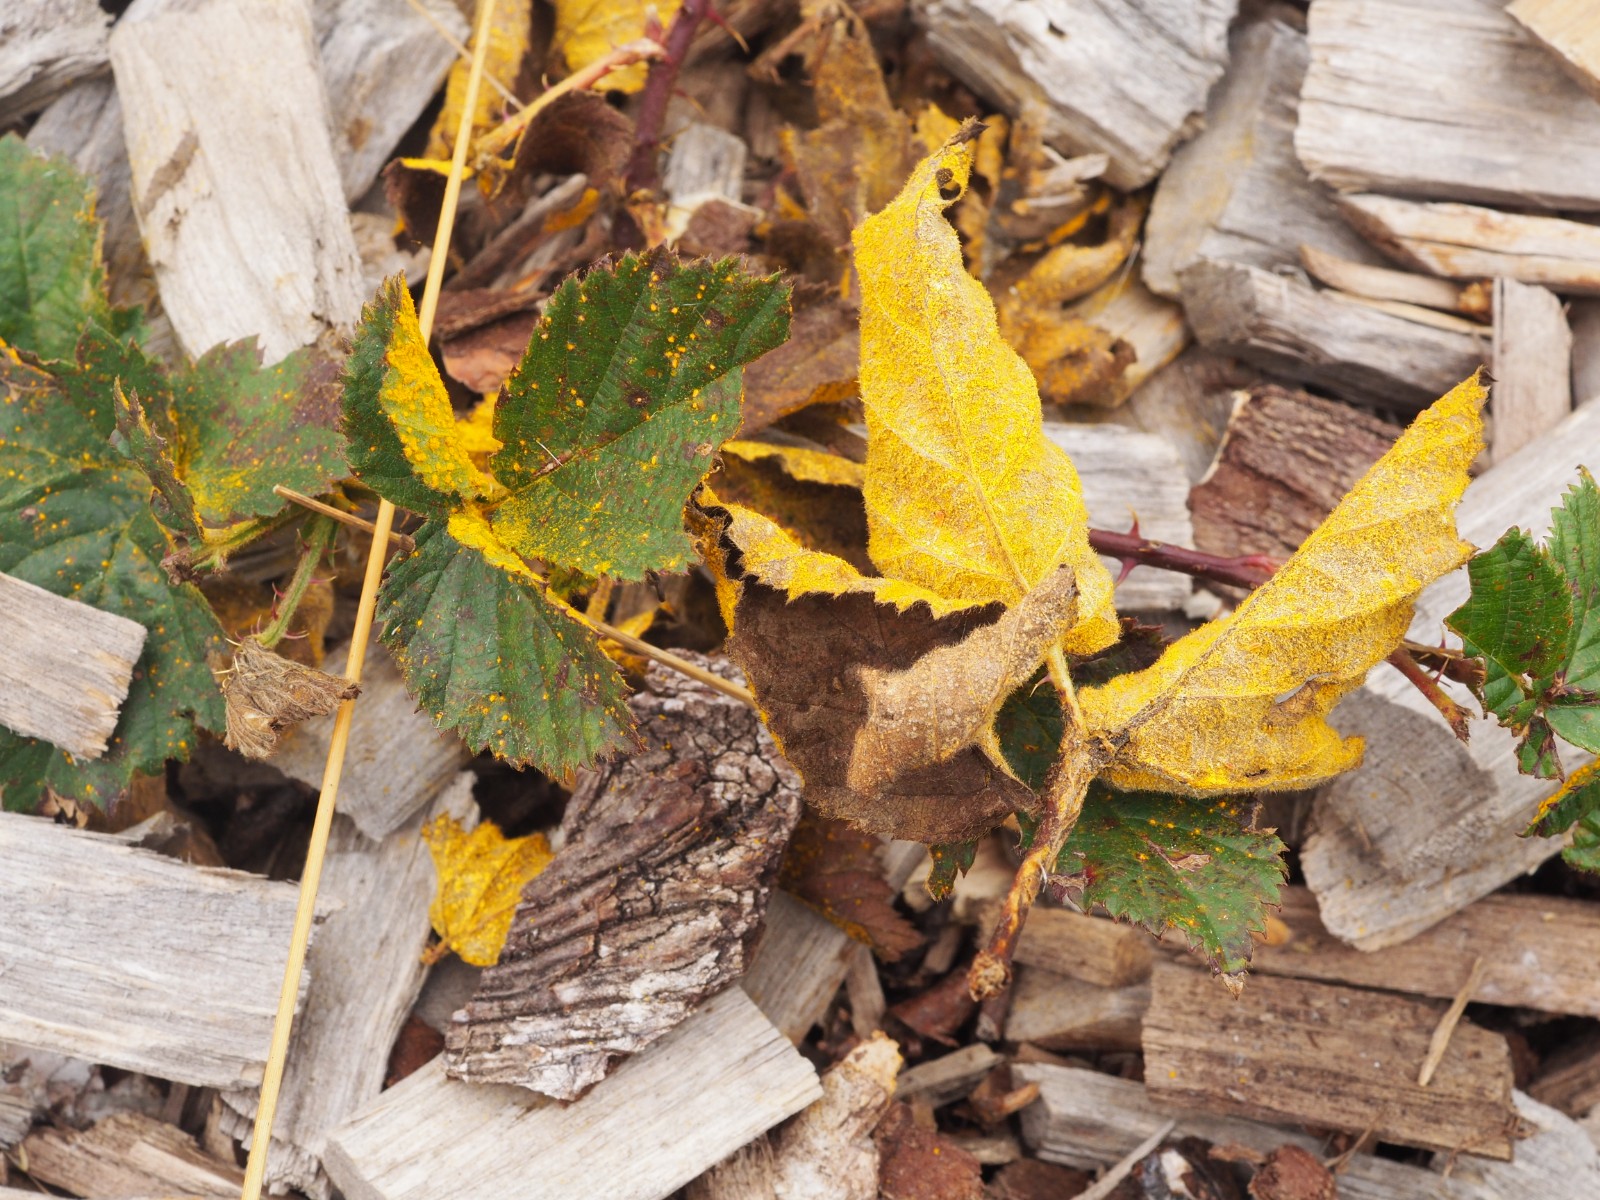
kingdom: Fungi
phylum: Basidiomycota
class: Pucciniomycetes
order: Pucciniales
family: Phragmidiaceae
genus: Kuehneola
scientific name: Kuehneola uredinis
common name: klynger-kædecellerust
